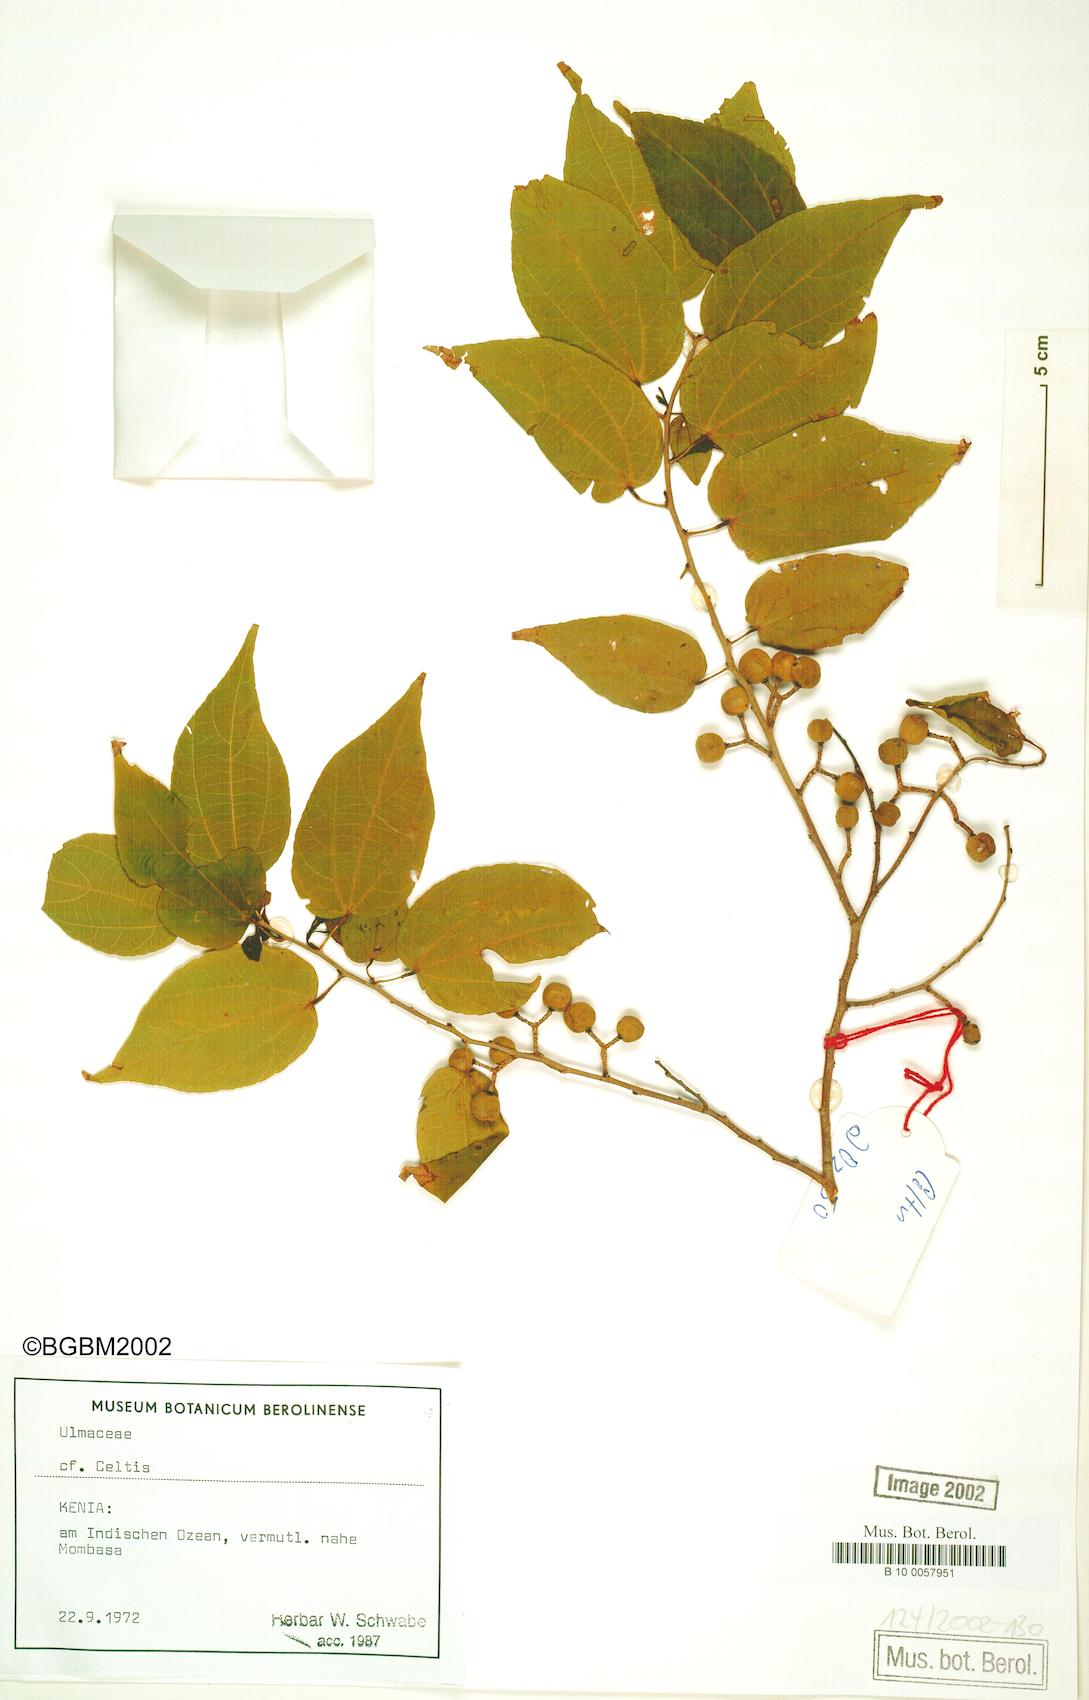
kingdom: Plantae
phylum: Tracheophyta
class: Magnoliopsida
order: Rosales
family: Ulmaceae
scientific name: Ulmaceae
